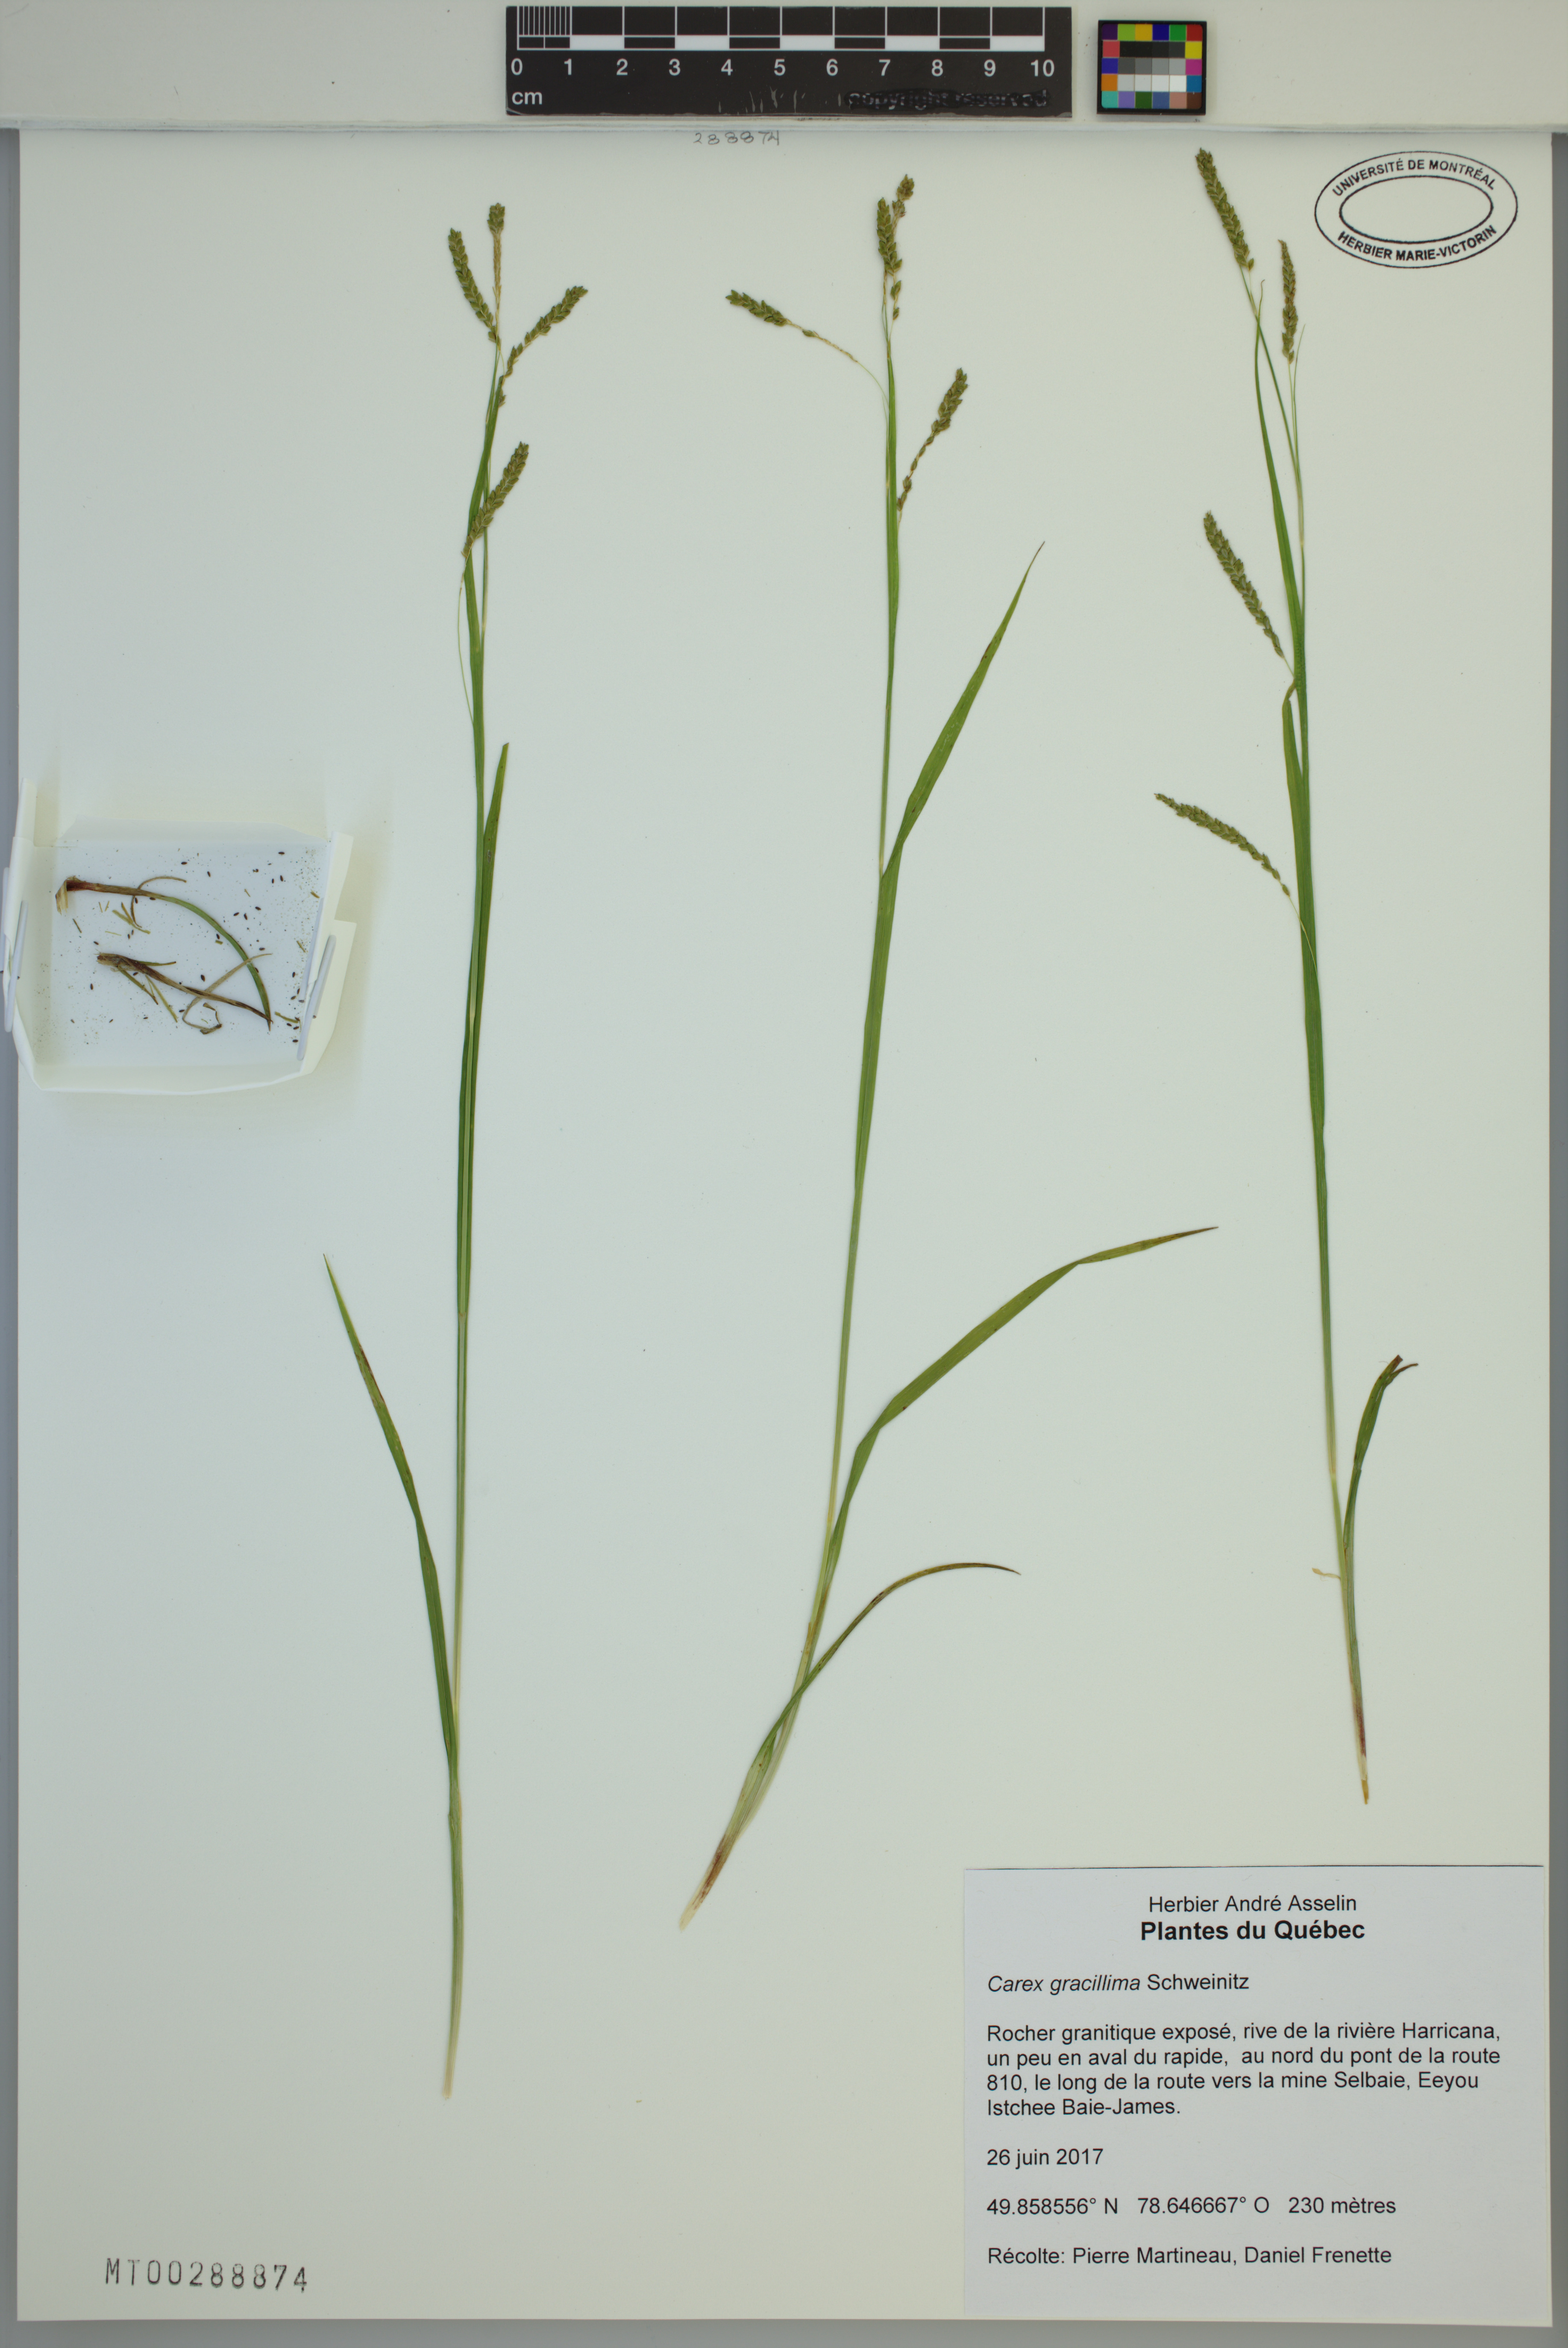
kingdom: Plantae
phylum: Tracheophyta
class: Liliopsida
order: Poales
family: Cyperaceae
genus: Carex
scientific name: Carex gracillima
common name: Graceful sedge
